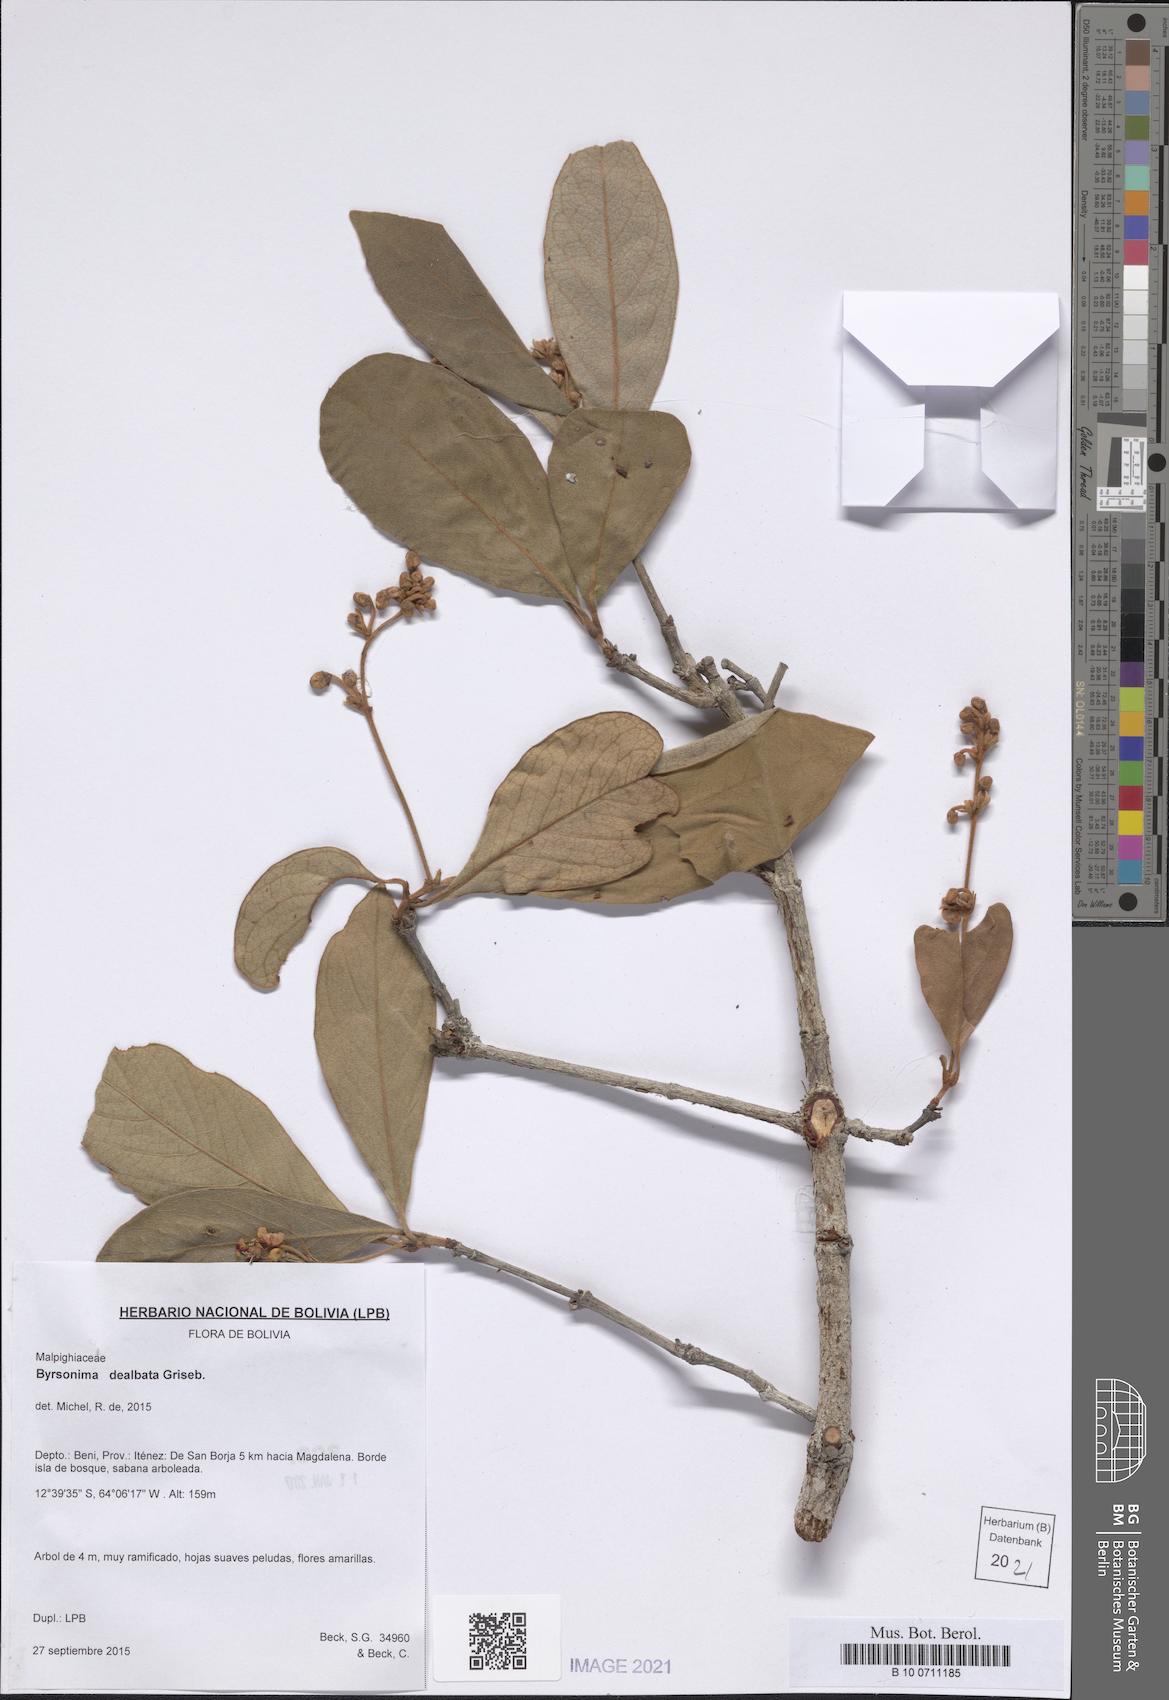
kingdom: Plantae
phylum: Tracheophyta
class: Magnoliopsida
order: Malpighiales
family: Malpighiaceae
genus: Byrsonima
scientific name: Byrsonima dealbata
